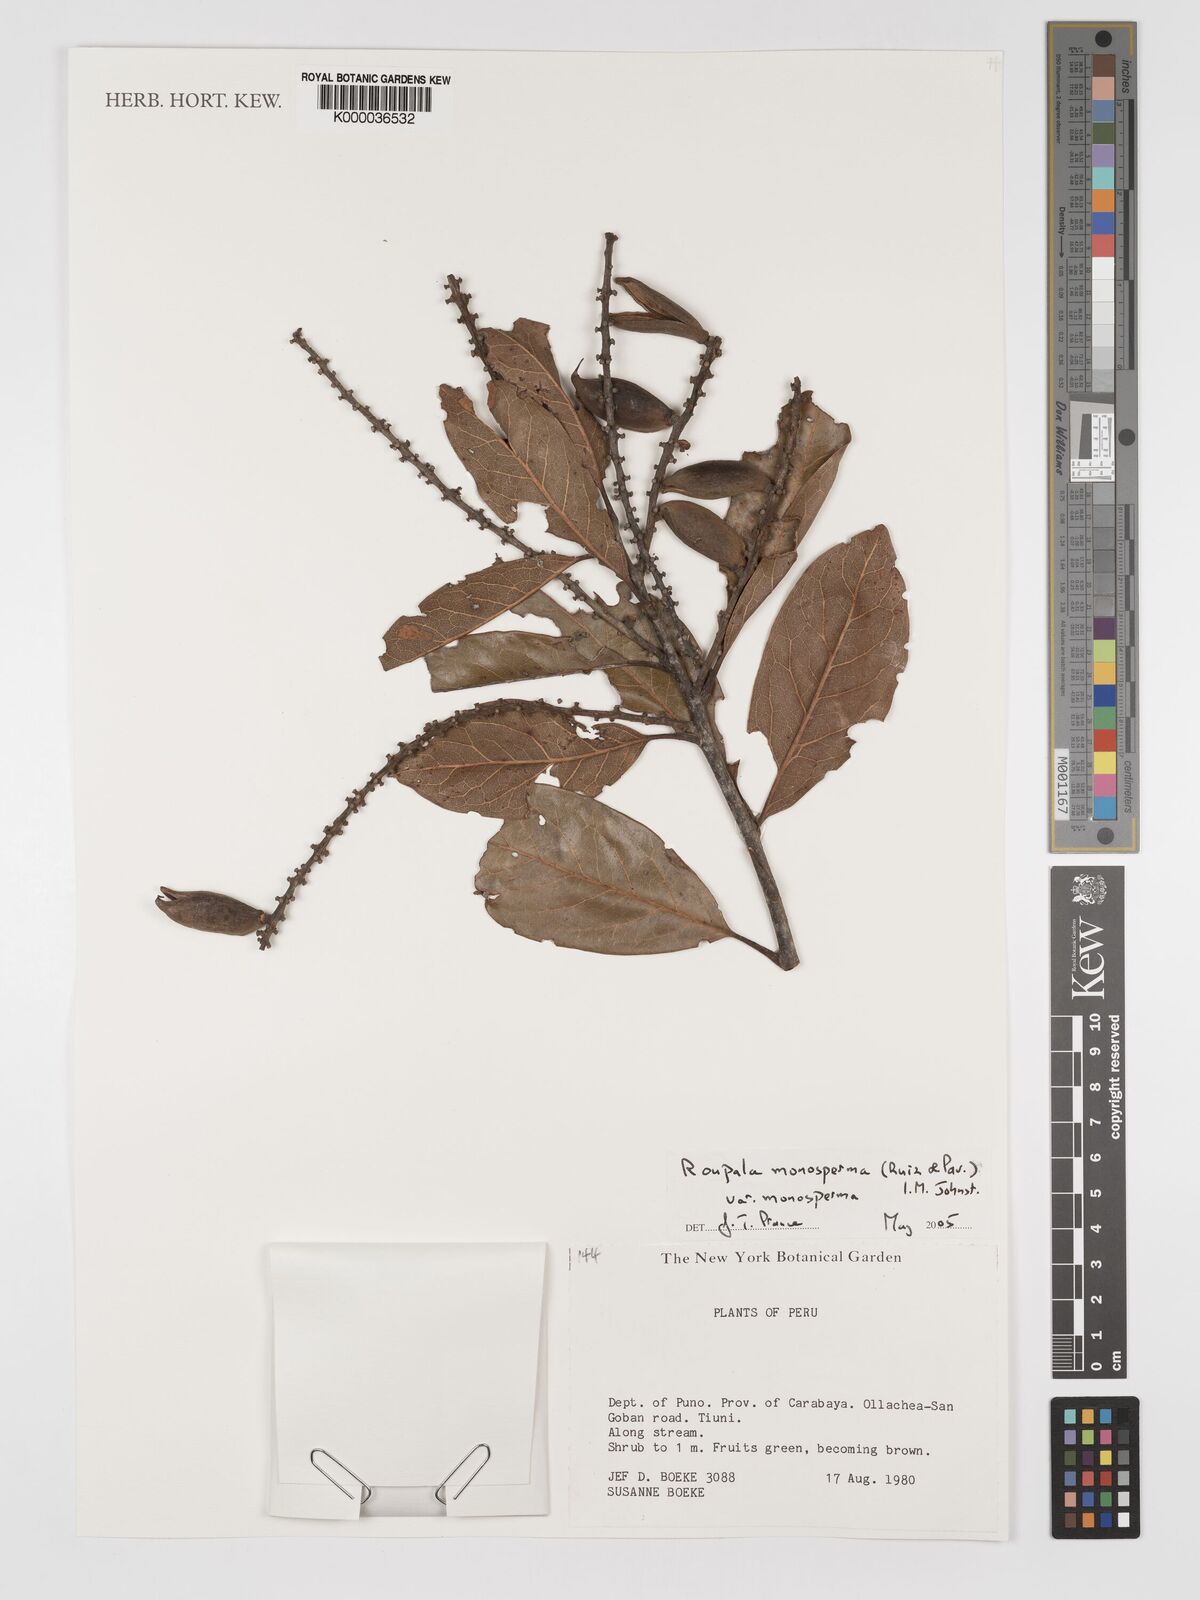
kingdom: Plantae
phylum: Tracheophyta
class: Magnoliopsida
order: Proteales
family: Proteaceae
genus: Roupala
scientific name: Roupala monosperma
